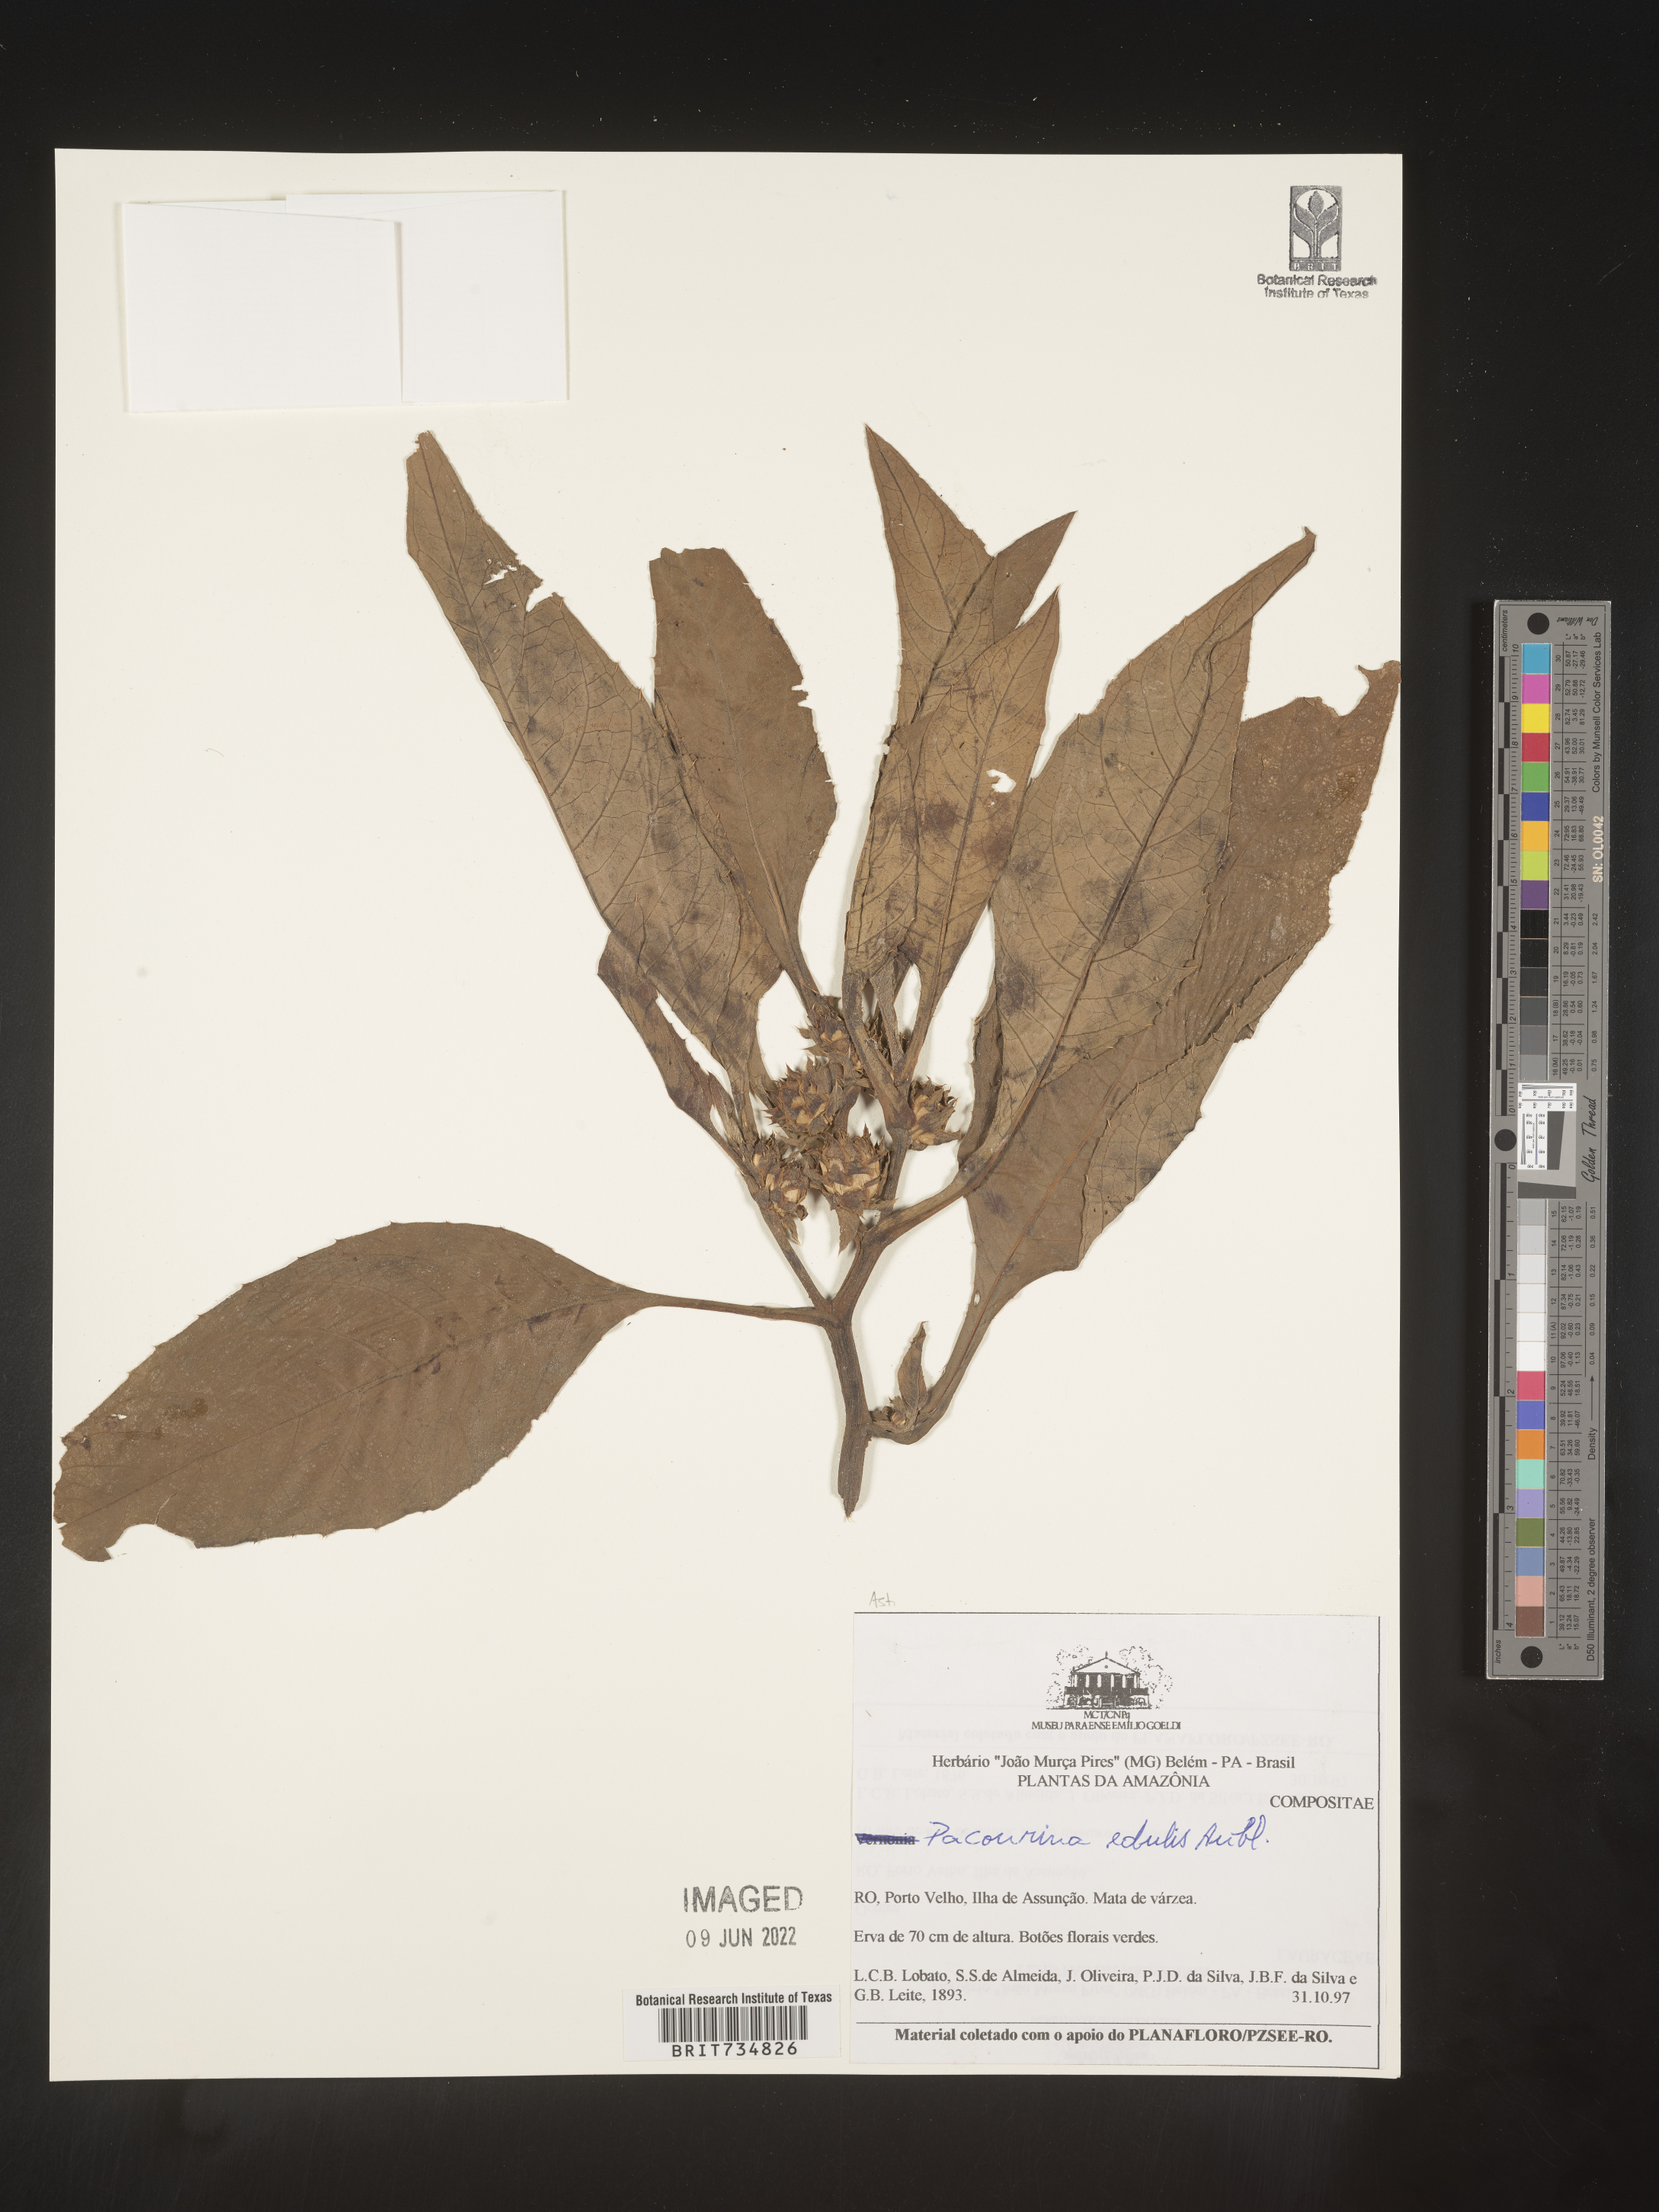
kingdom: Plantae
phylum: Tracheophyta
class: Magnoliopsida
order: Asterales
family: Asteraceae
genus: Pacourina
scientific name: Pacourina
